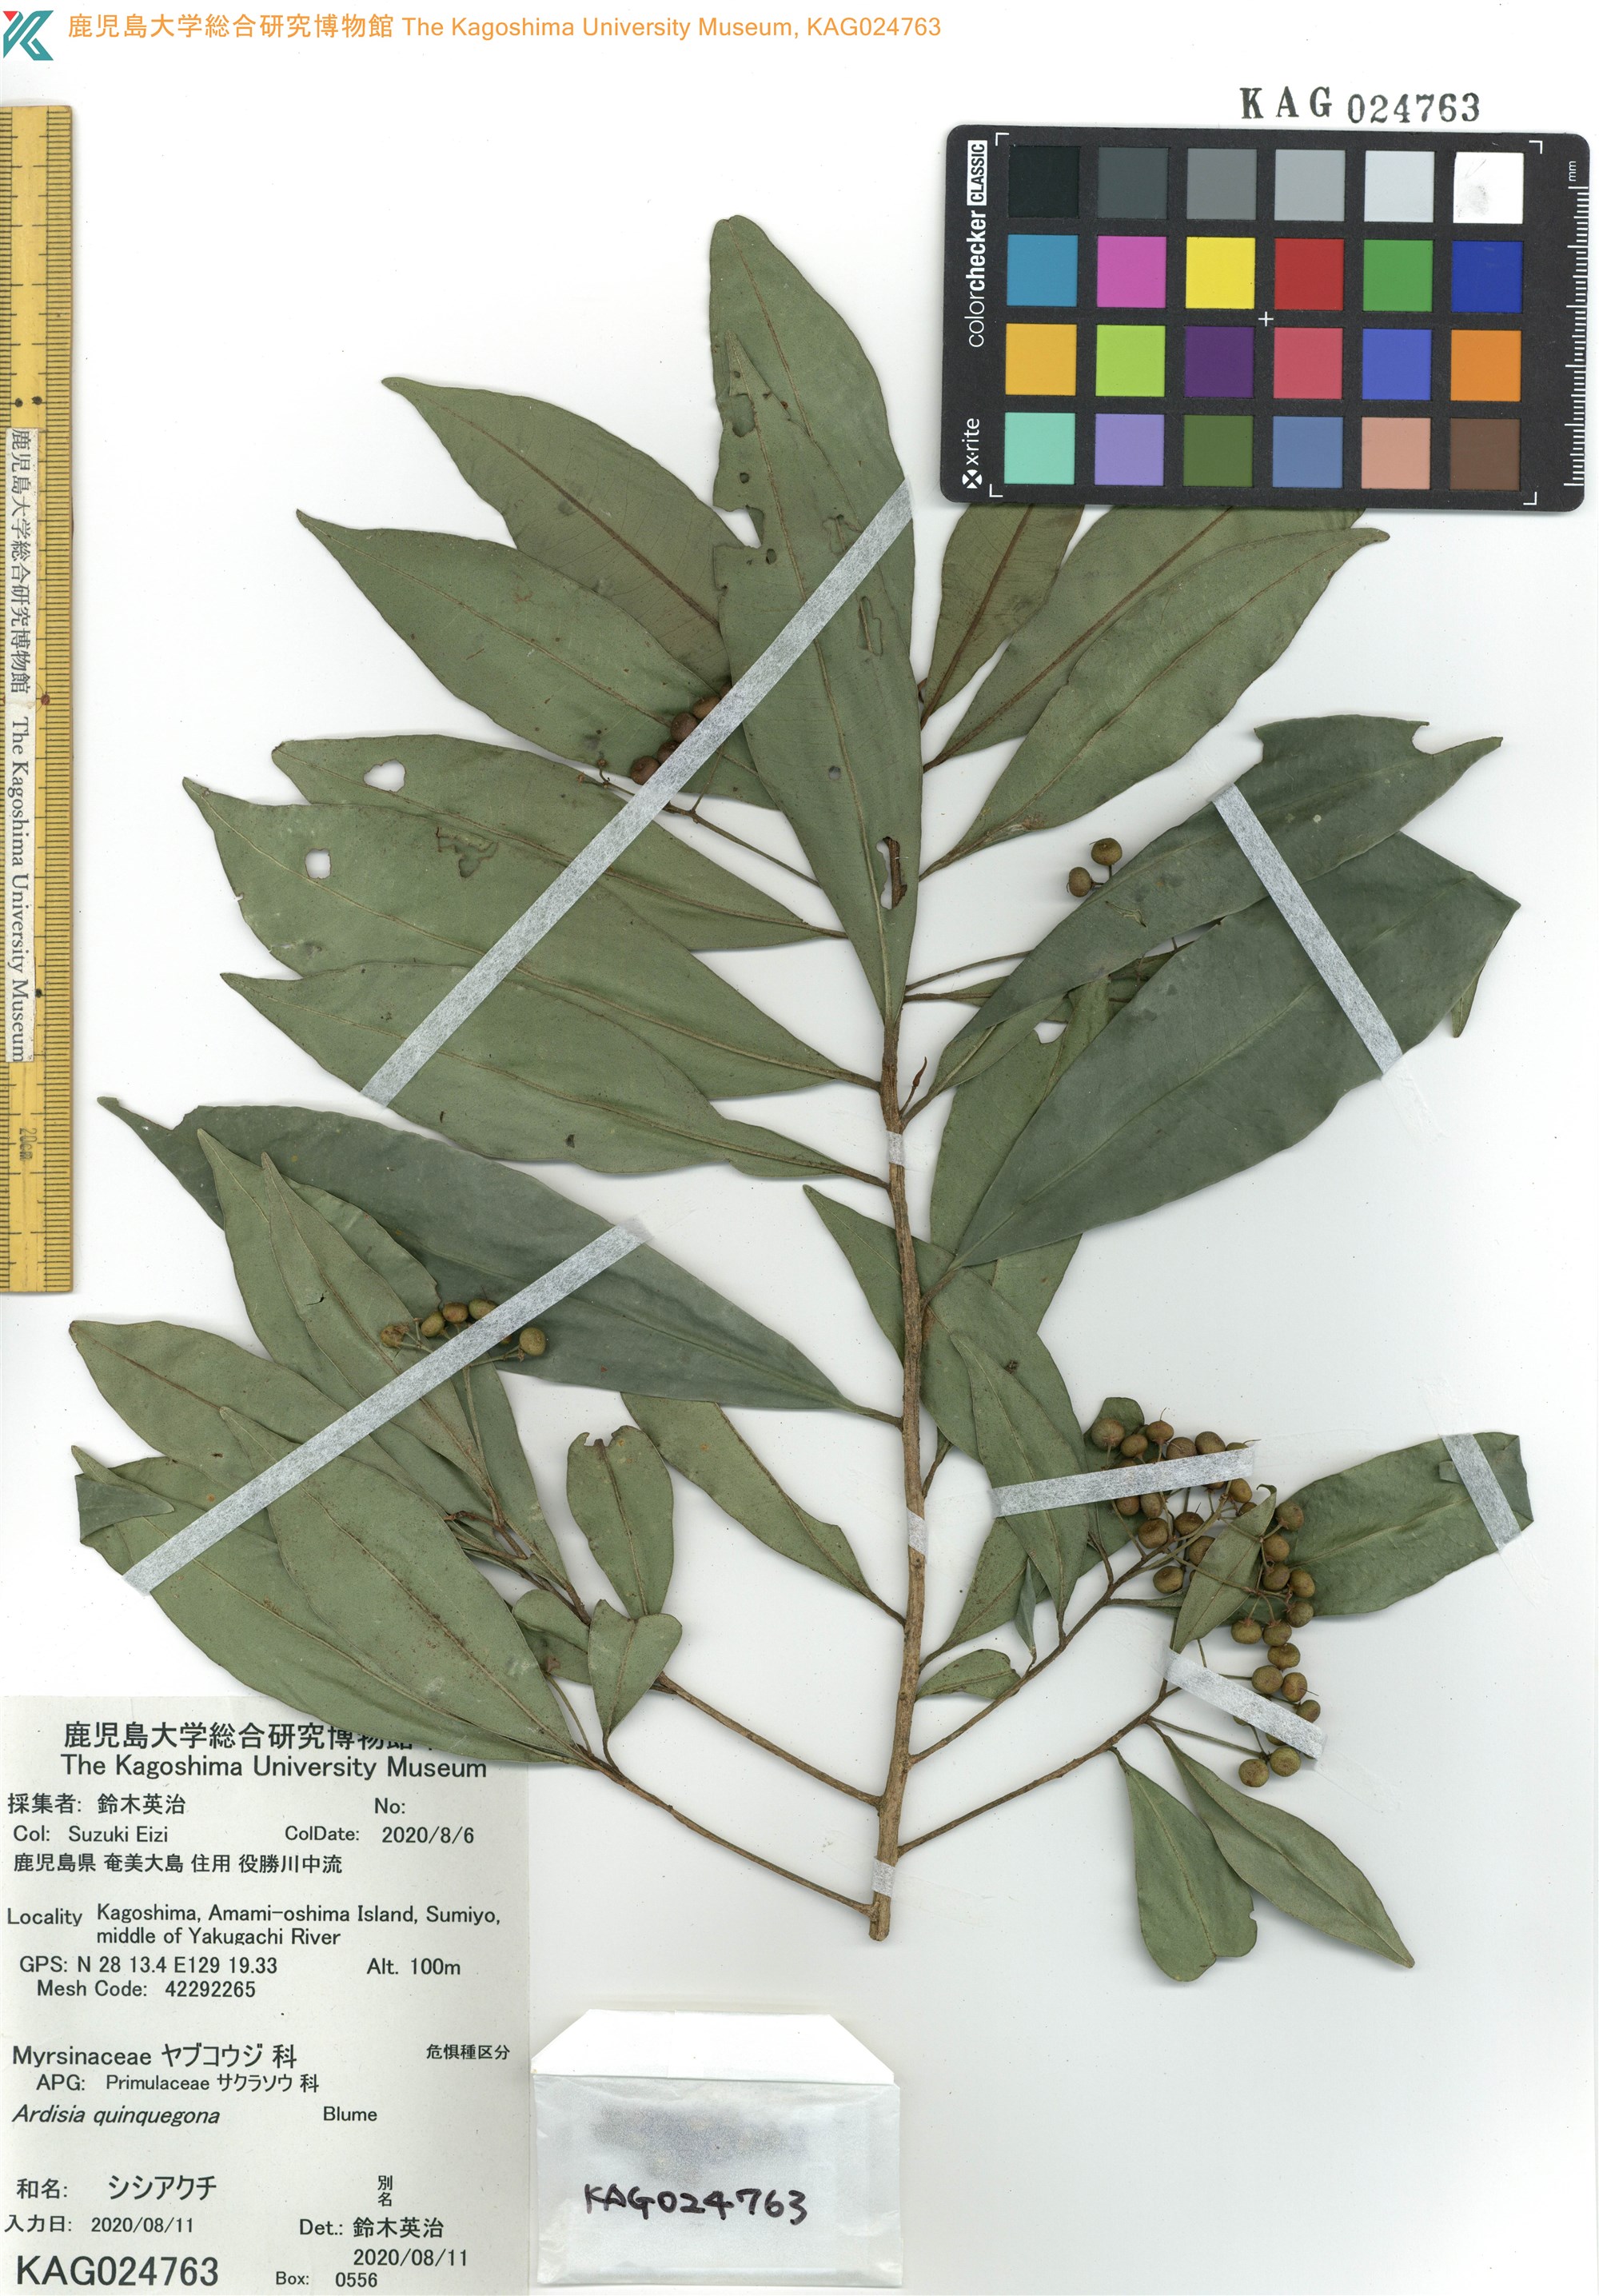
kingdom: Plantae
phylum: Tracheophyta
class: Magnoliopsida
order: Ericales
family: Primulaceae
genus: Ardisia
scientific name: Ardisia quinquegona
